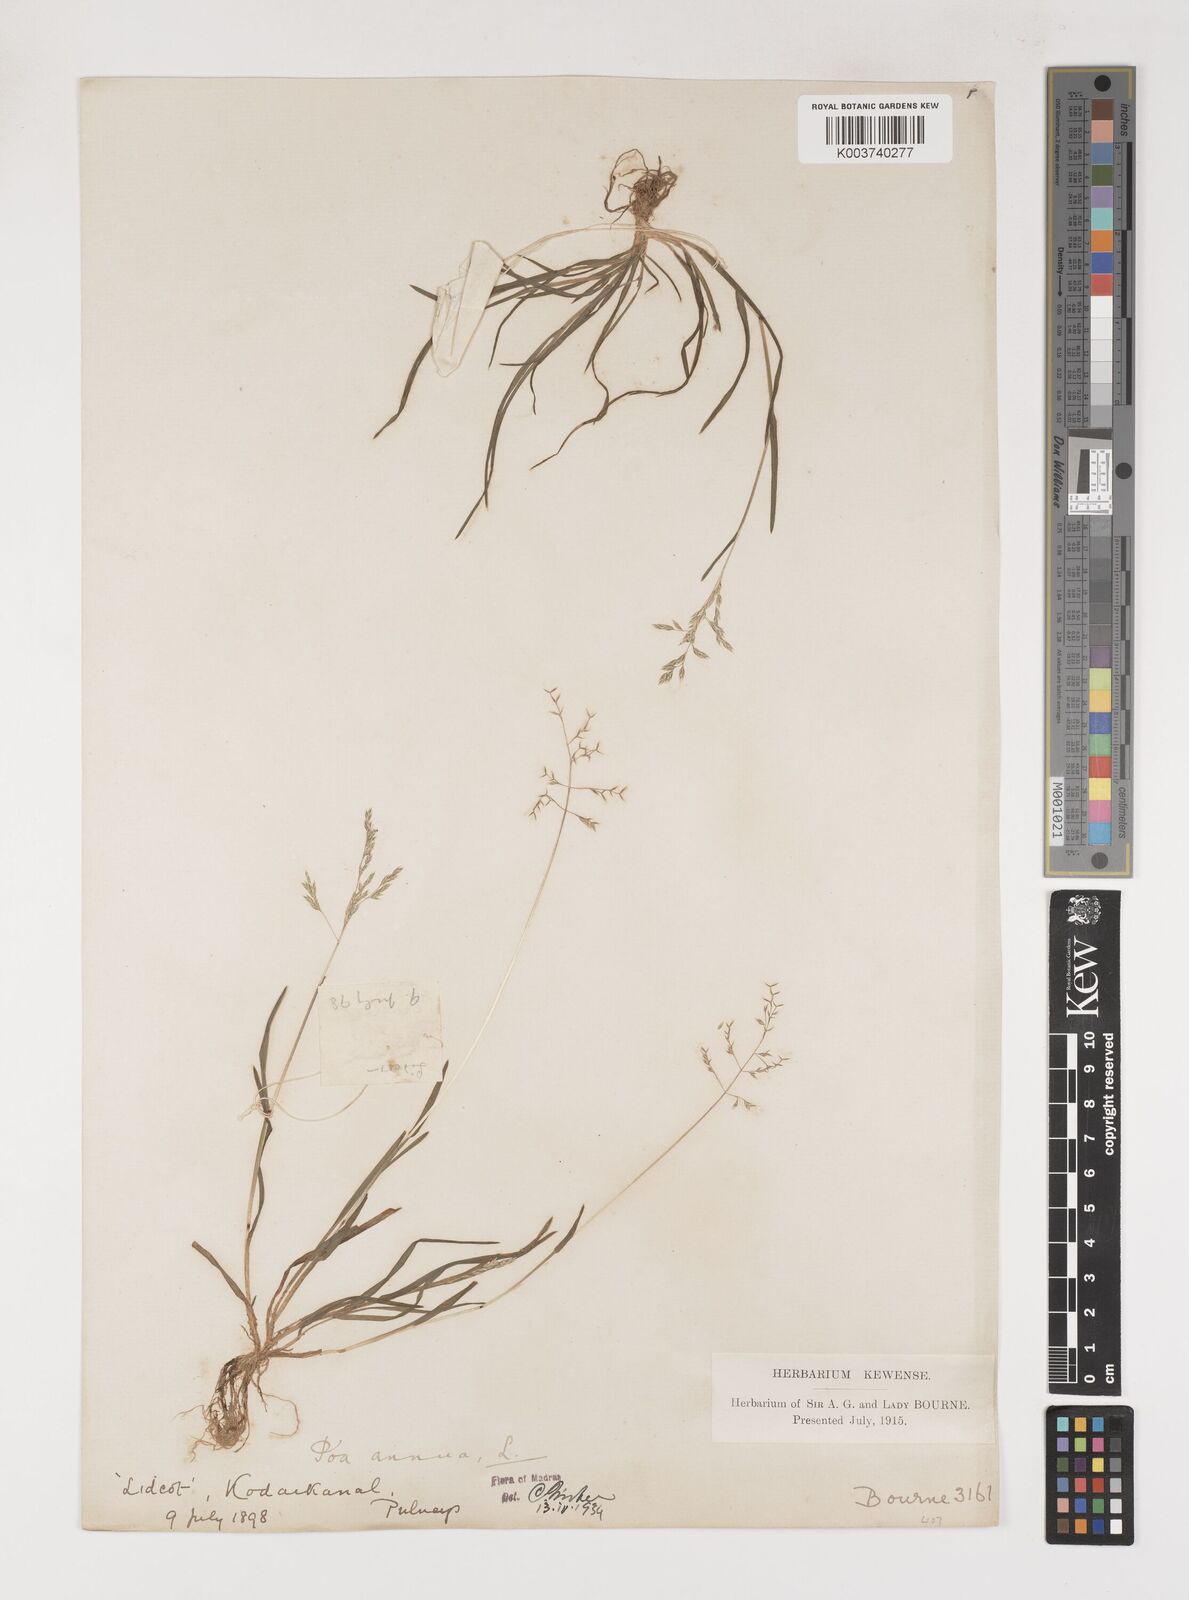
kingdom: Plantae
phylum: Tracheophyta
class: Liliopsida
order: Poales
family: Poaceae
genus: Poa
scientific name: Poa annua
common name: Annual bluegrass
